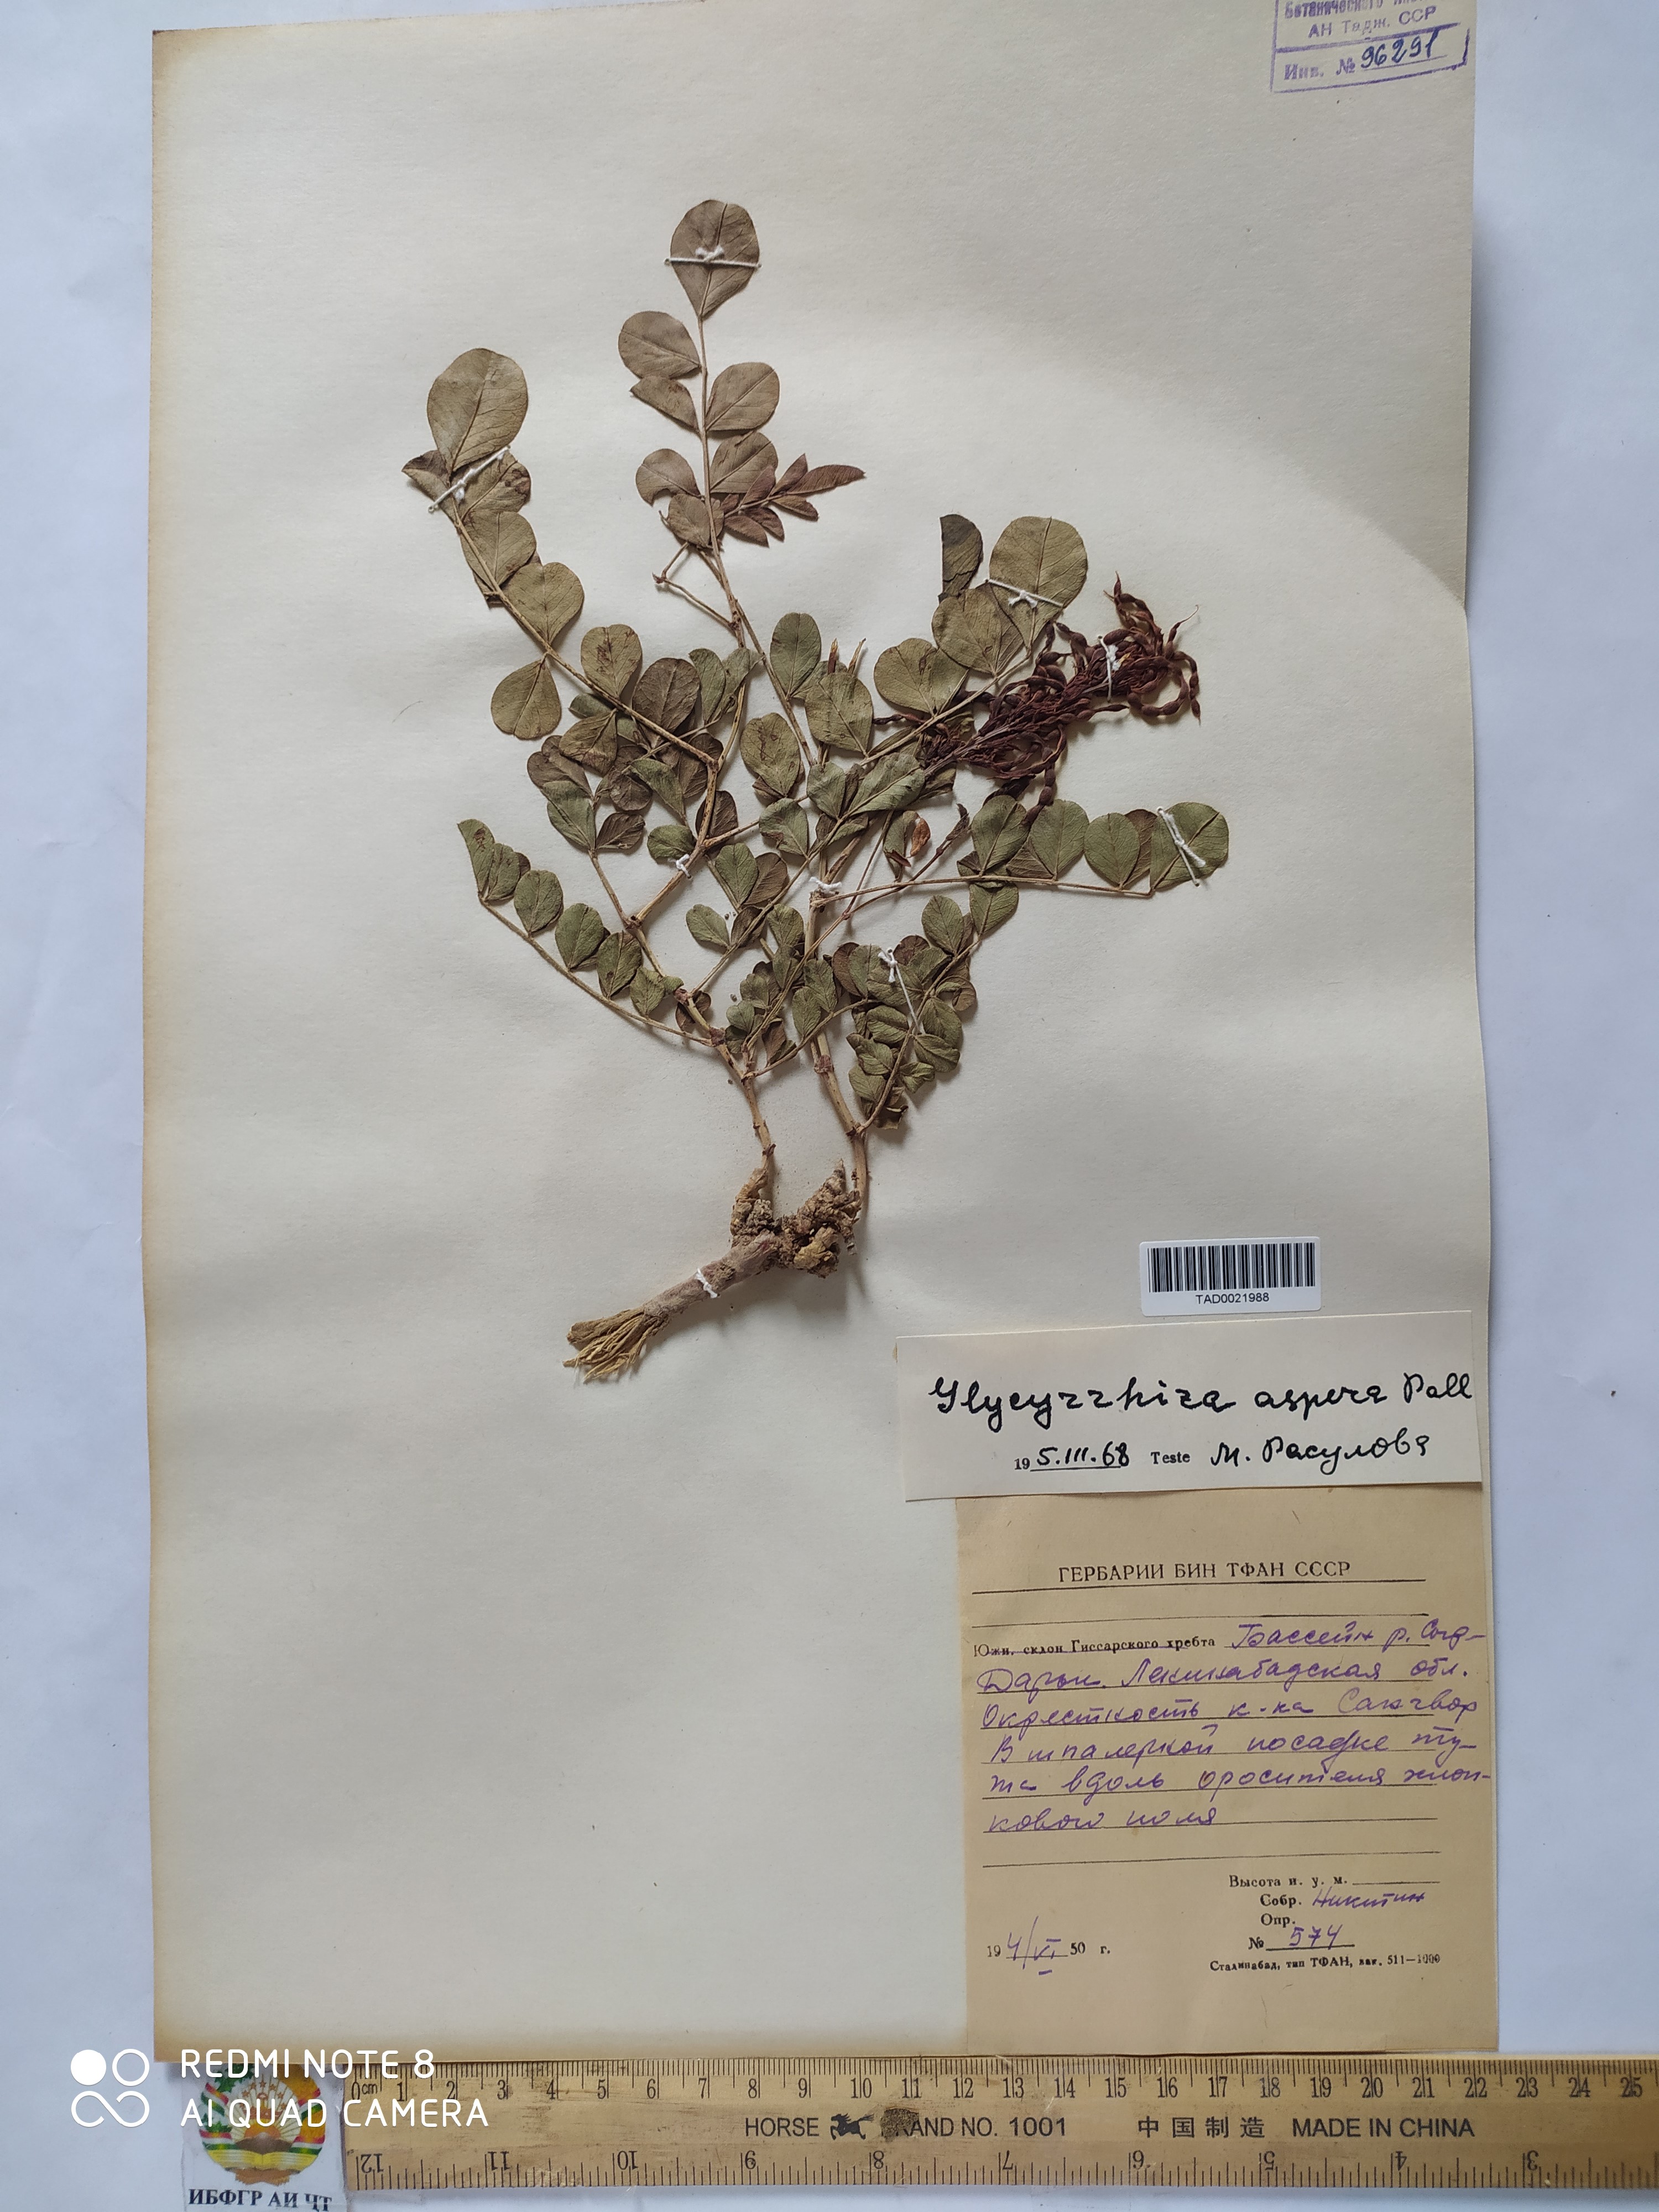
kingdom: Plantae
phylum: Tracheophyta
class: Magnoliopsida
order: Fabales
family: Fabaceae
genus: Glycyrrhiza
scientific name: Glycyrrhiza glabra
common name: Liquorice
